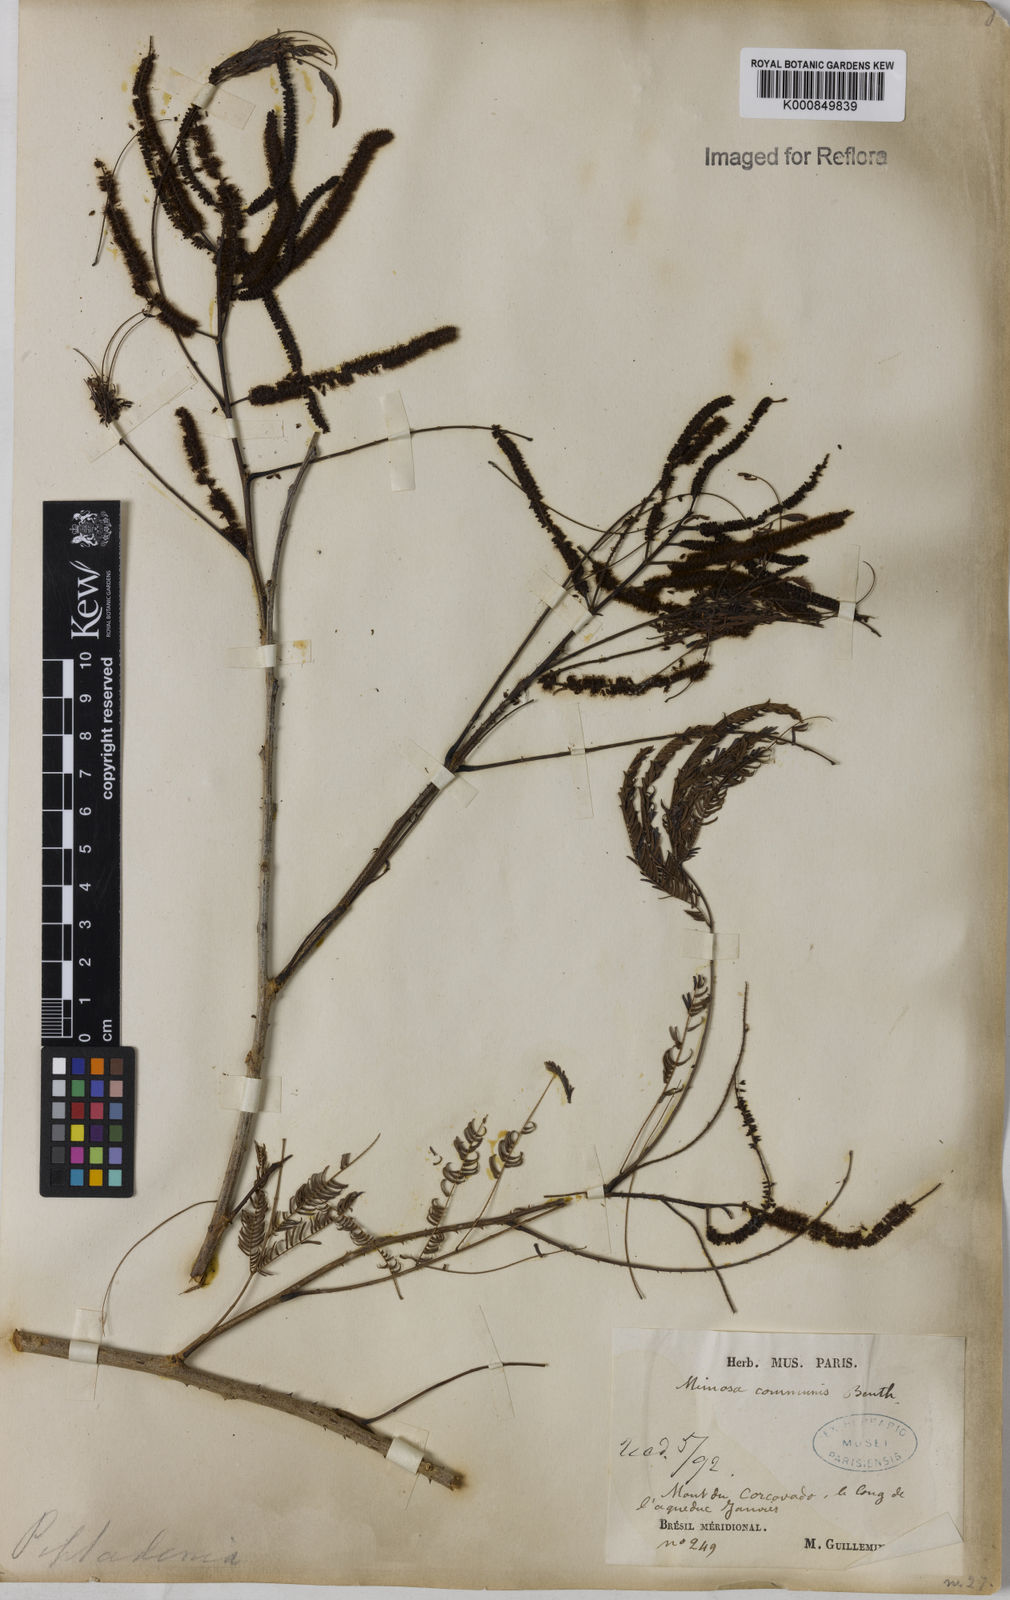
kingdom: Plantae
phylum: Tracheophyta
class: Magnoliopsida
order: Fabales
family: Fabaceae
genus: Piptadenia
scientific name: Piptadenia gonoacantha
